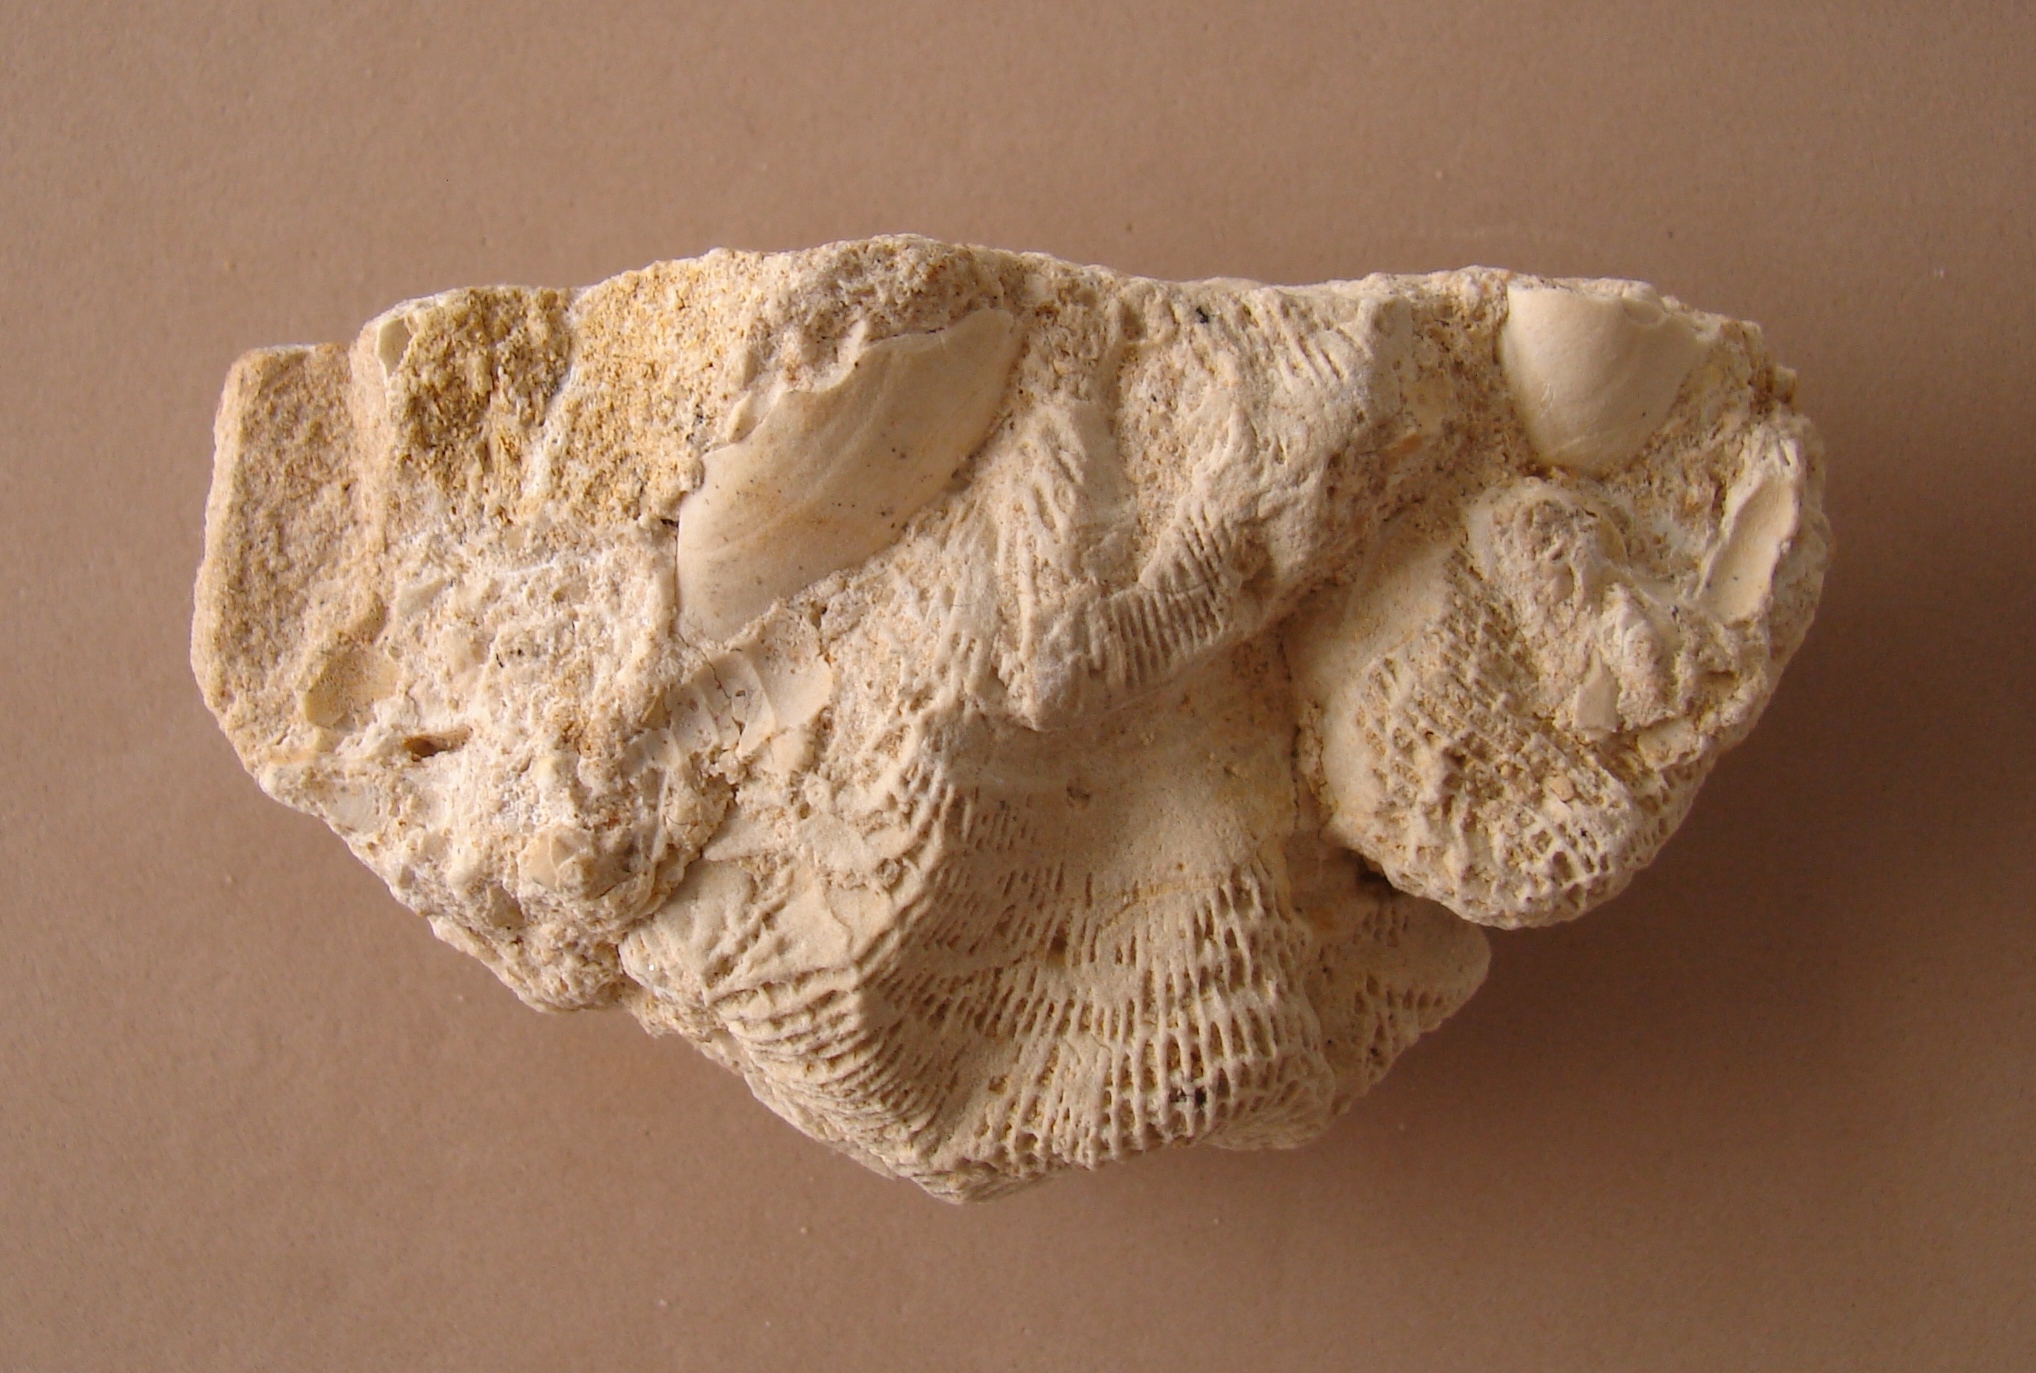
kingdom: Animalia
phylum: Cnidaria
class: Anthozoa
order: Scleractinia
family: Stylophyllidae
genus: Phacelostylophyllum
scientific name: Phacelostylophyllum
